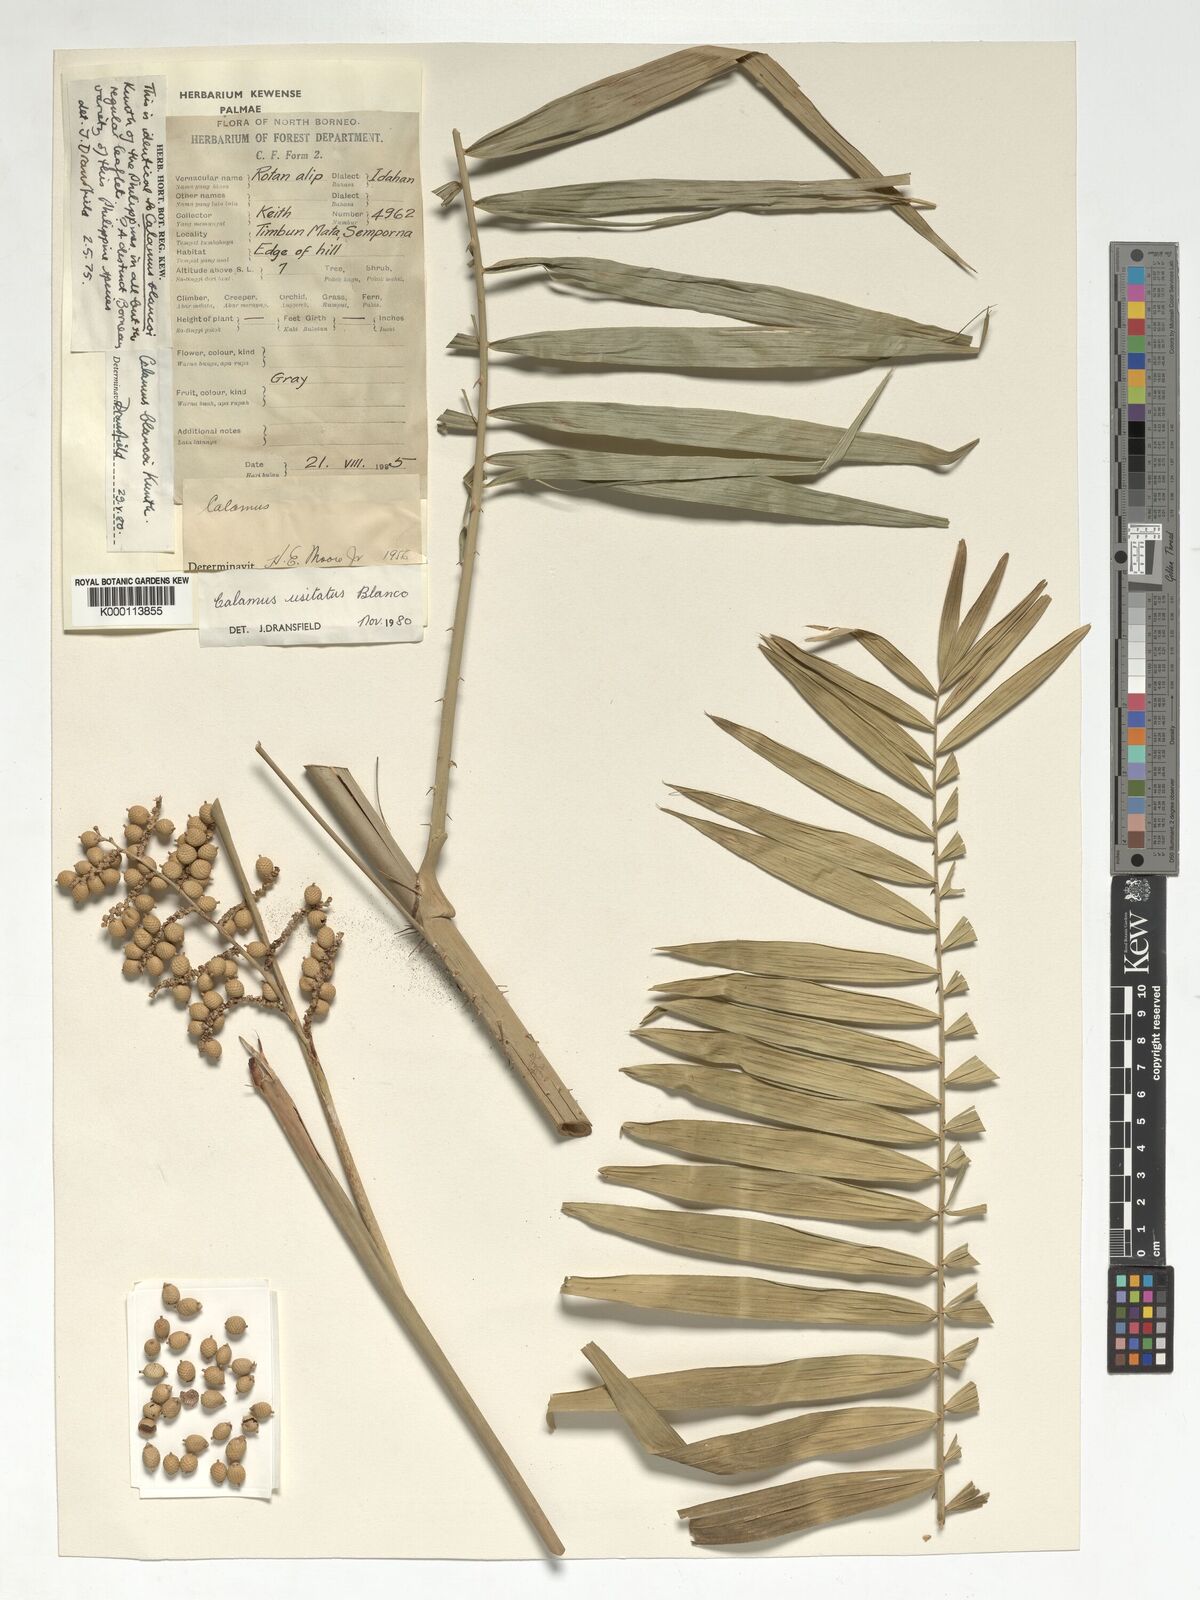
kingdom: Plantae
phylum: Tracheophyta
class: Liliopsida
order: Arecales
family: Arecaceae
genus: Calamus
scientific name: Calamus usitatus
